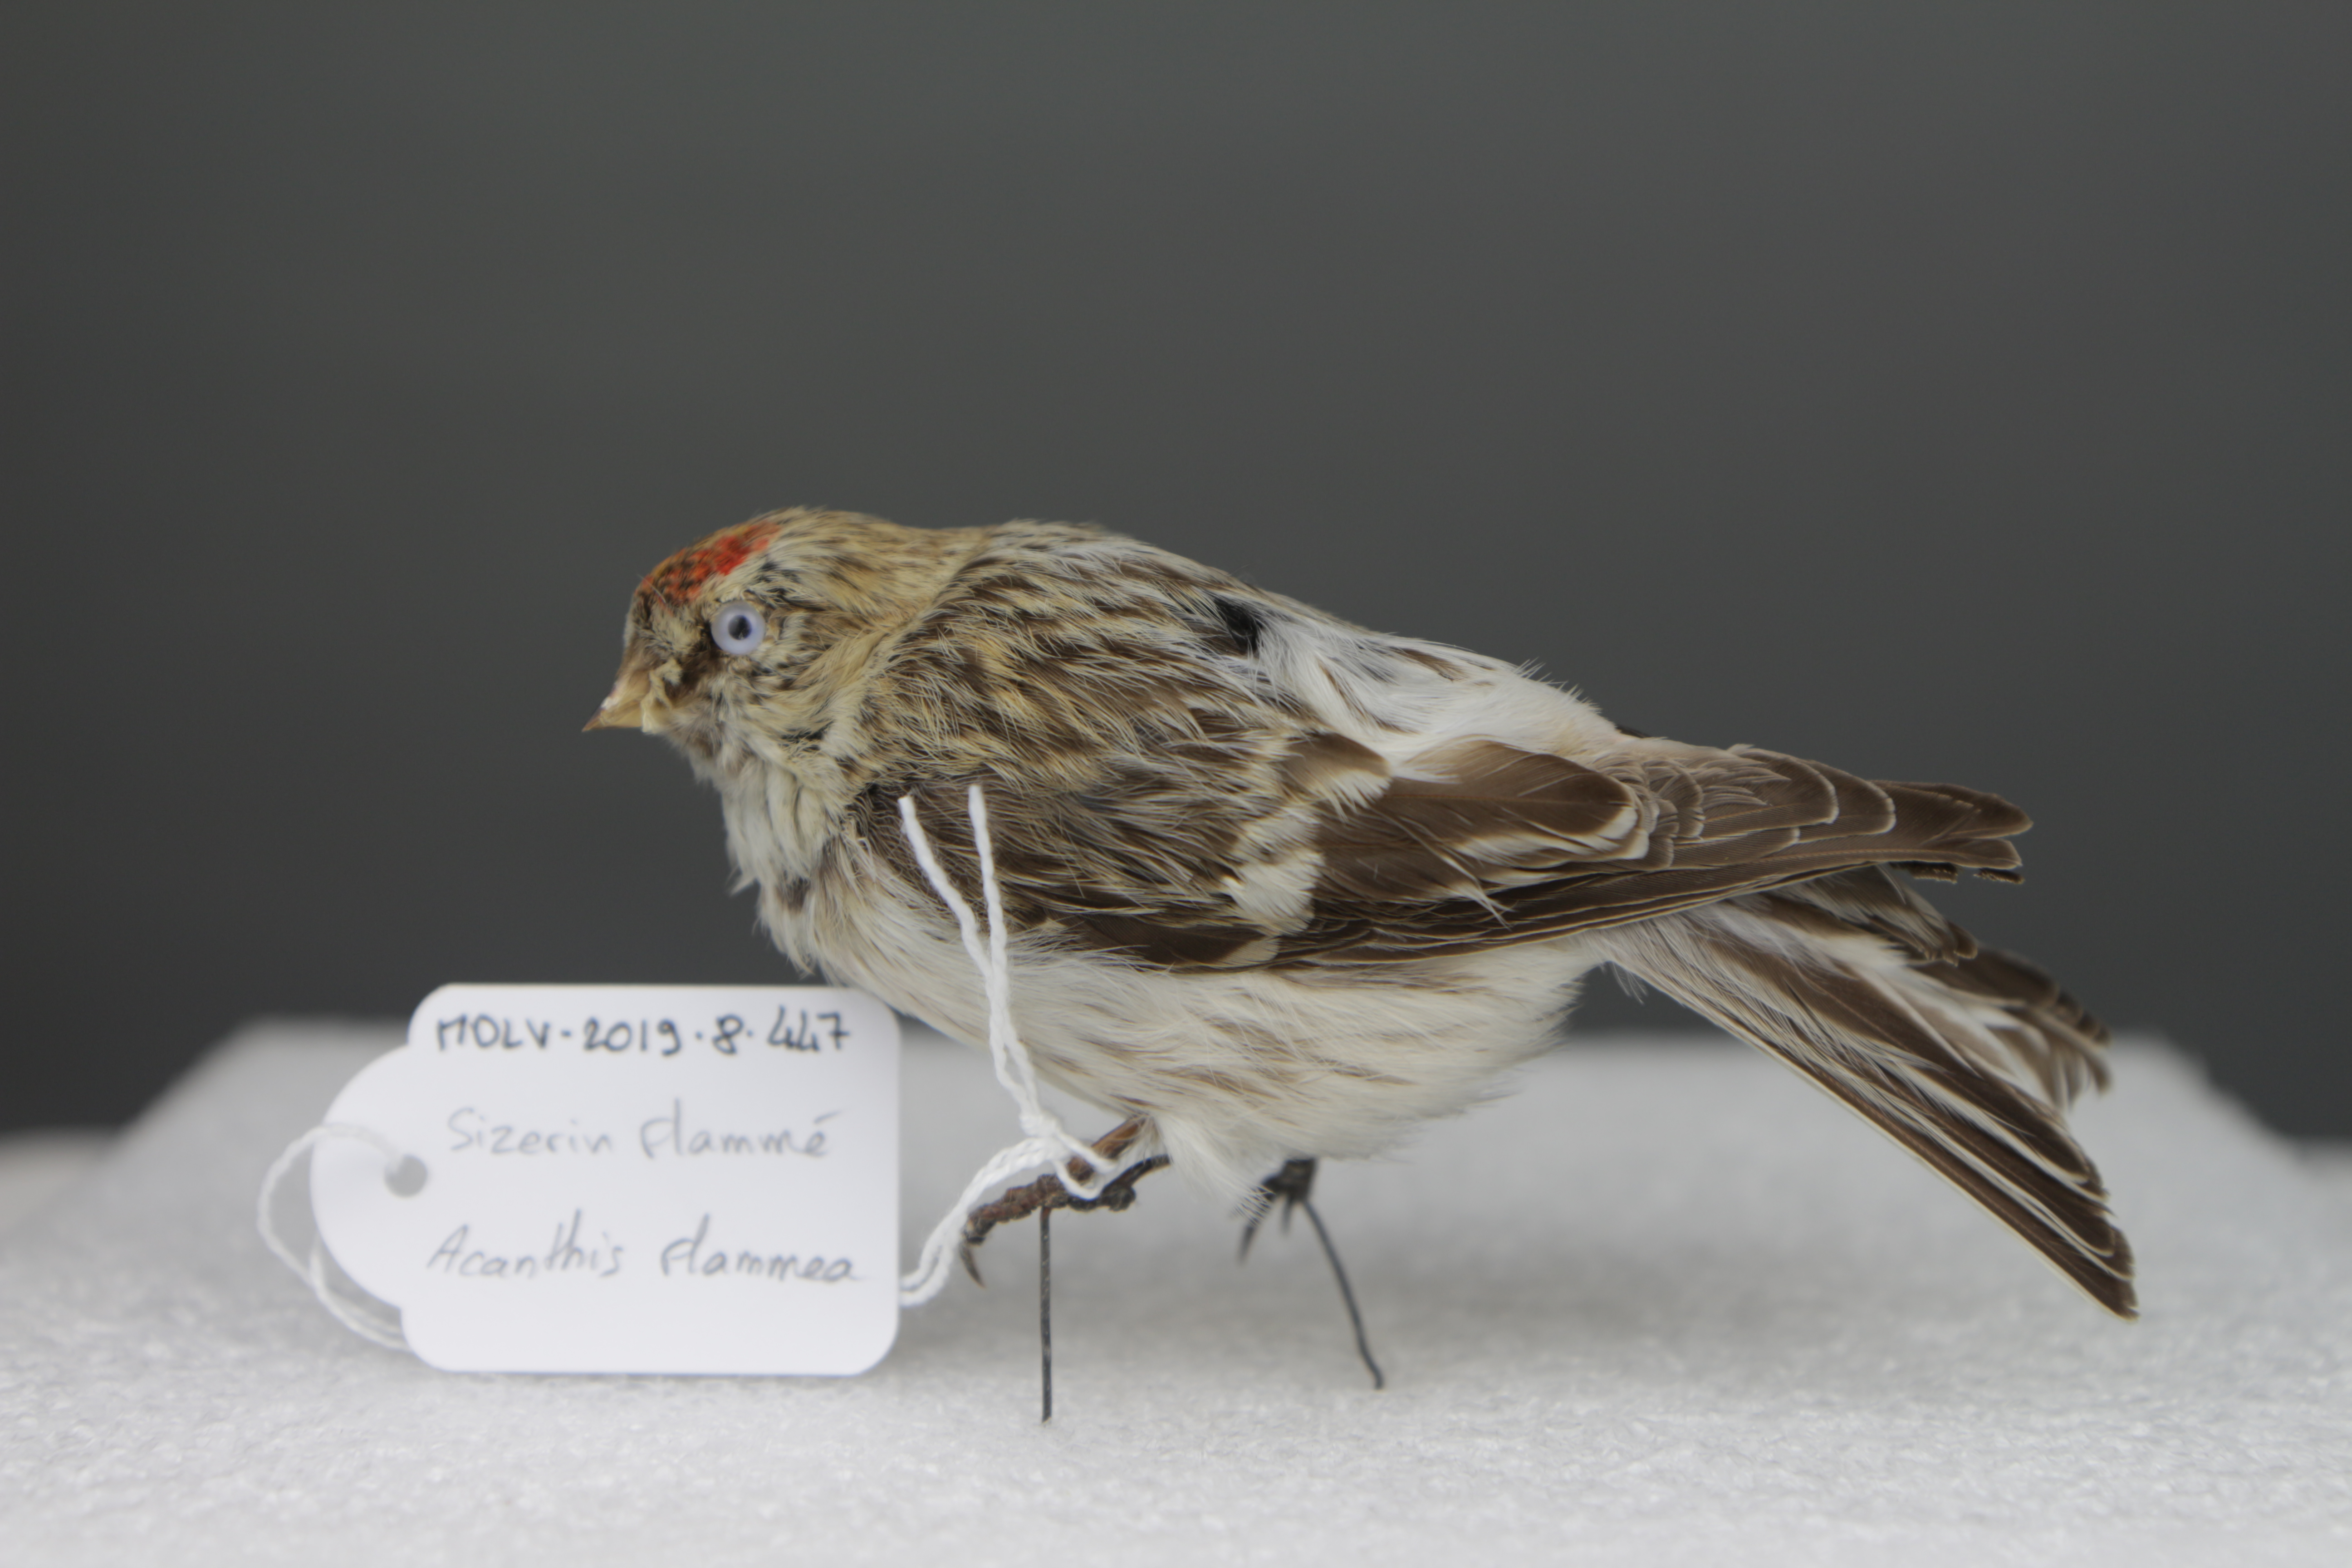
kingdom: Animalia
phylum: Chordata
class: Aves
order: Passeriformes
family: Fringillidae
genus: Acanthis
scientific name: Acanthis flammea
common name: Common redpoll
